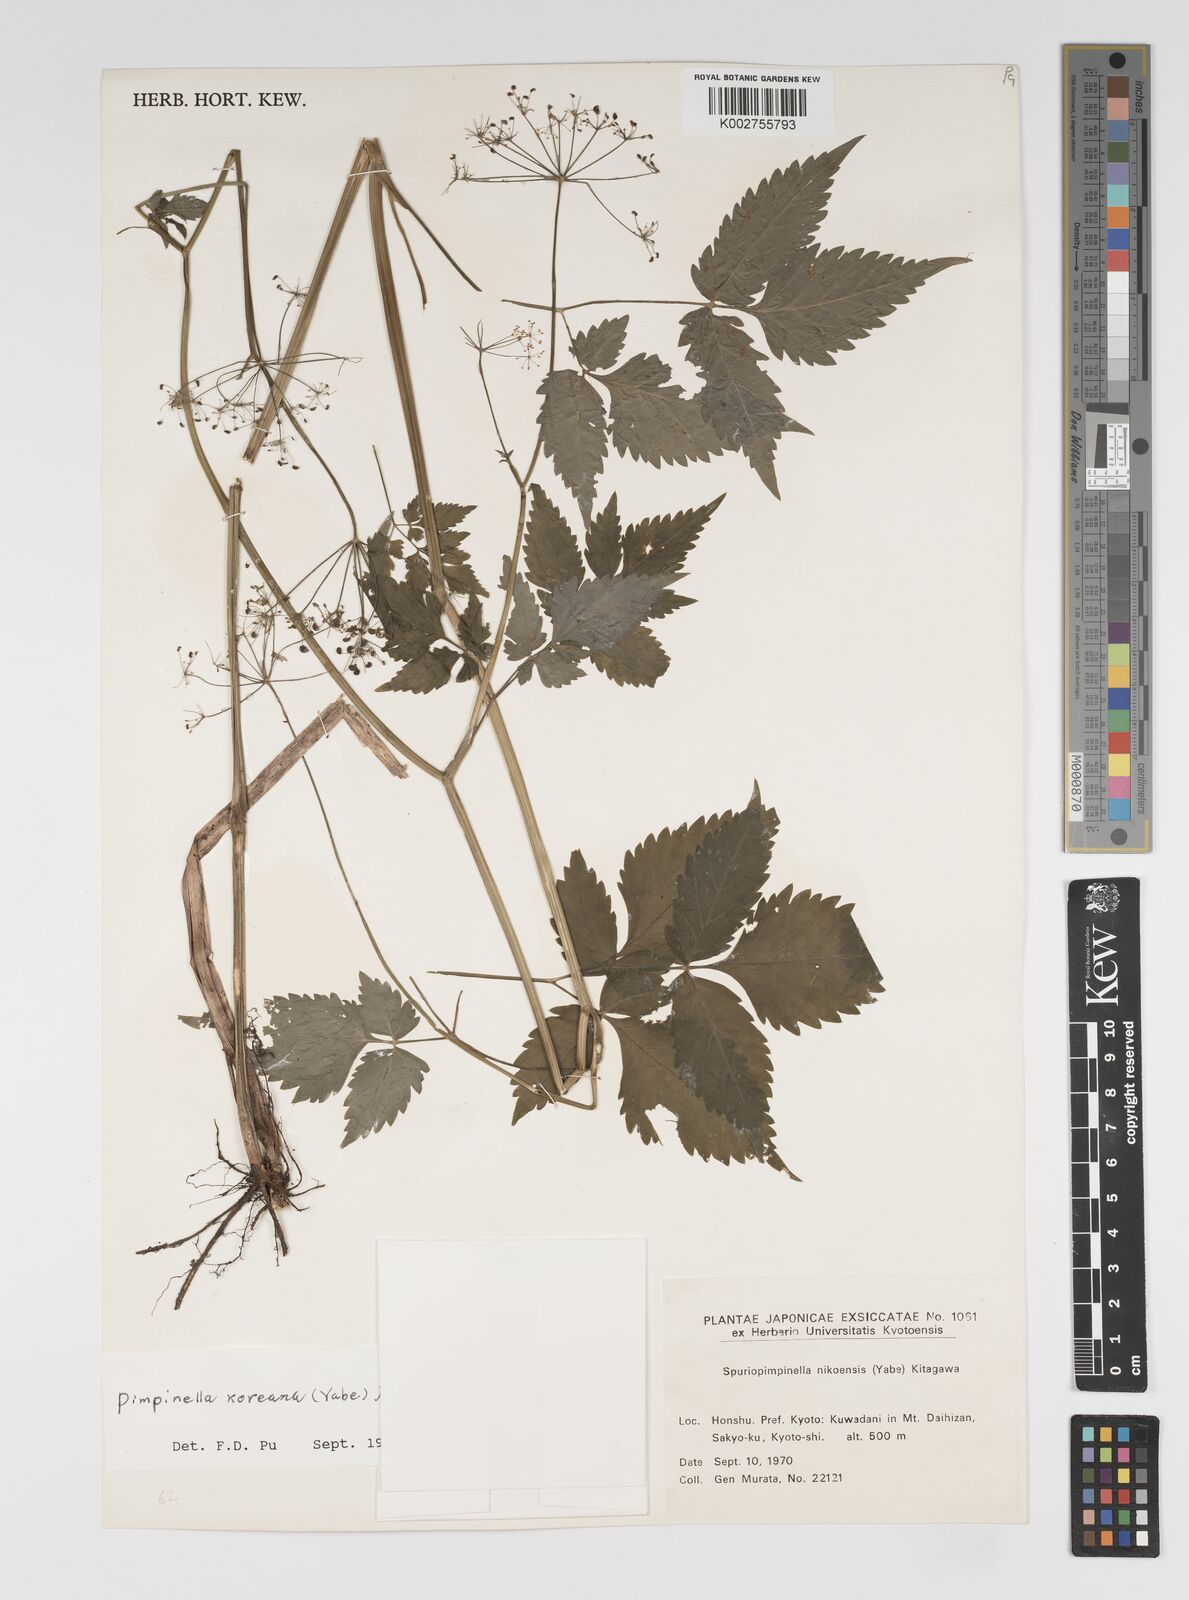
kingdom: Plantae
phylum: Tracheophyta
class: Magnoliopsida
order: Apiales
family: Apiaceae
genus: Spuriopimpinella
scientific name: Spuriopimpinella brachycarpa
